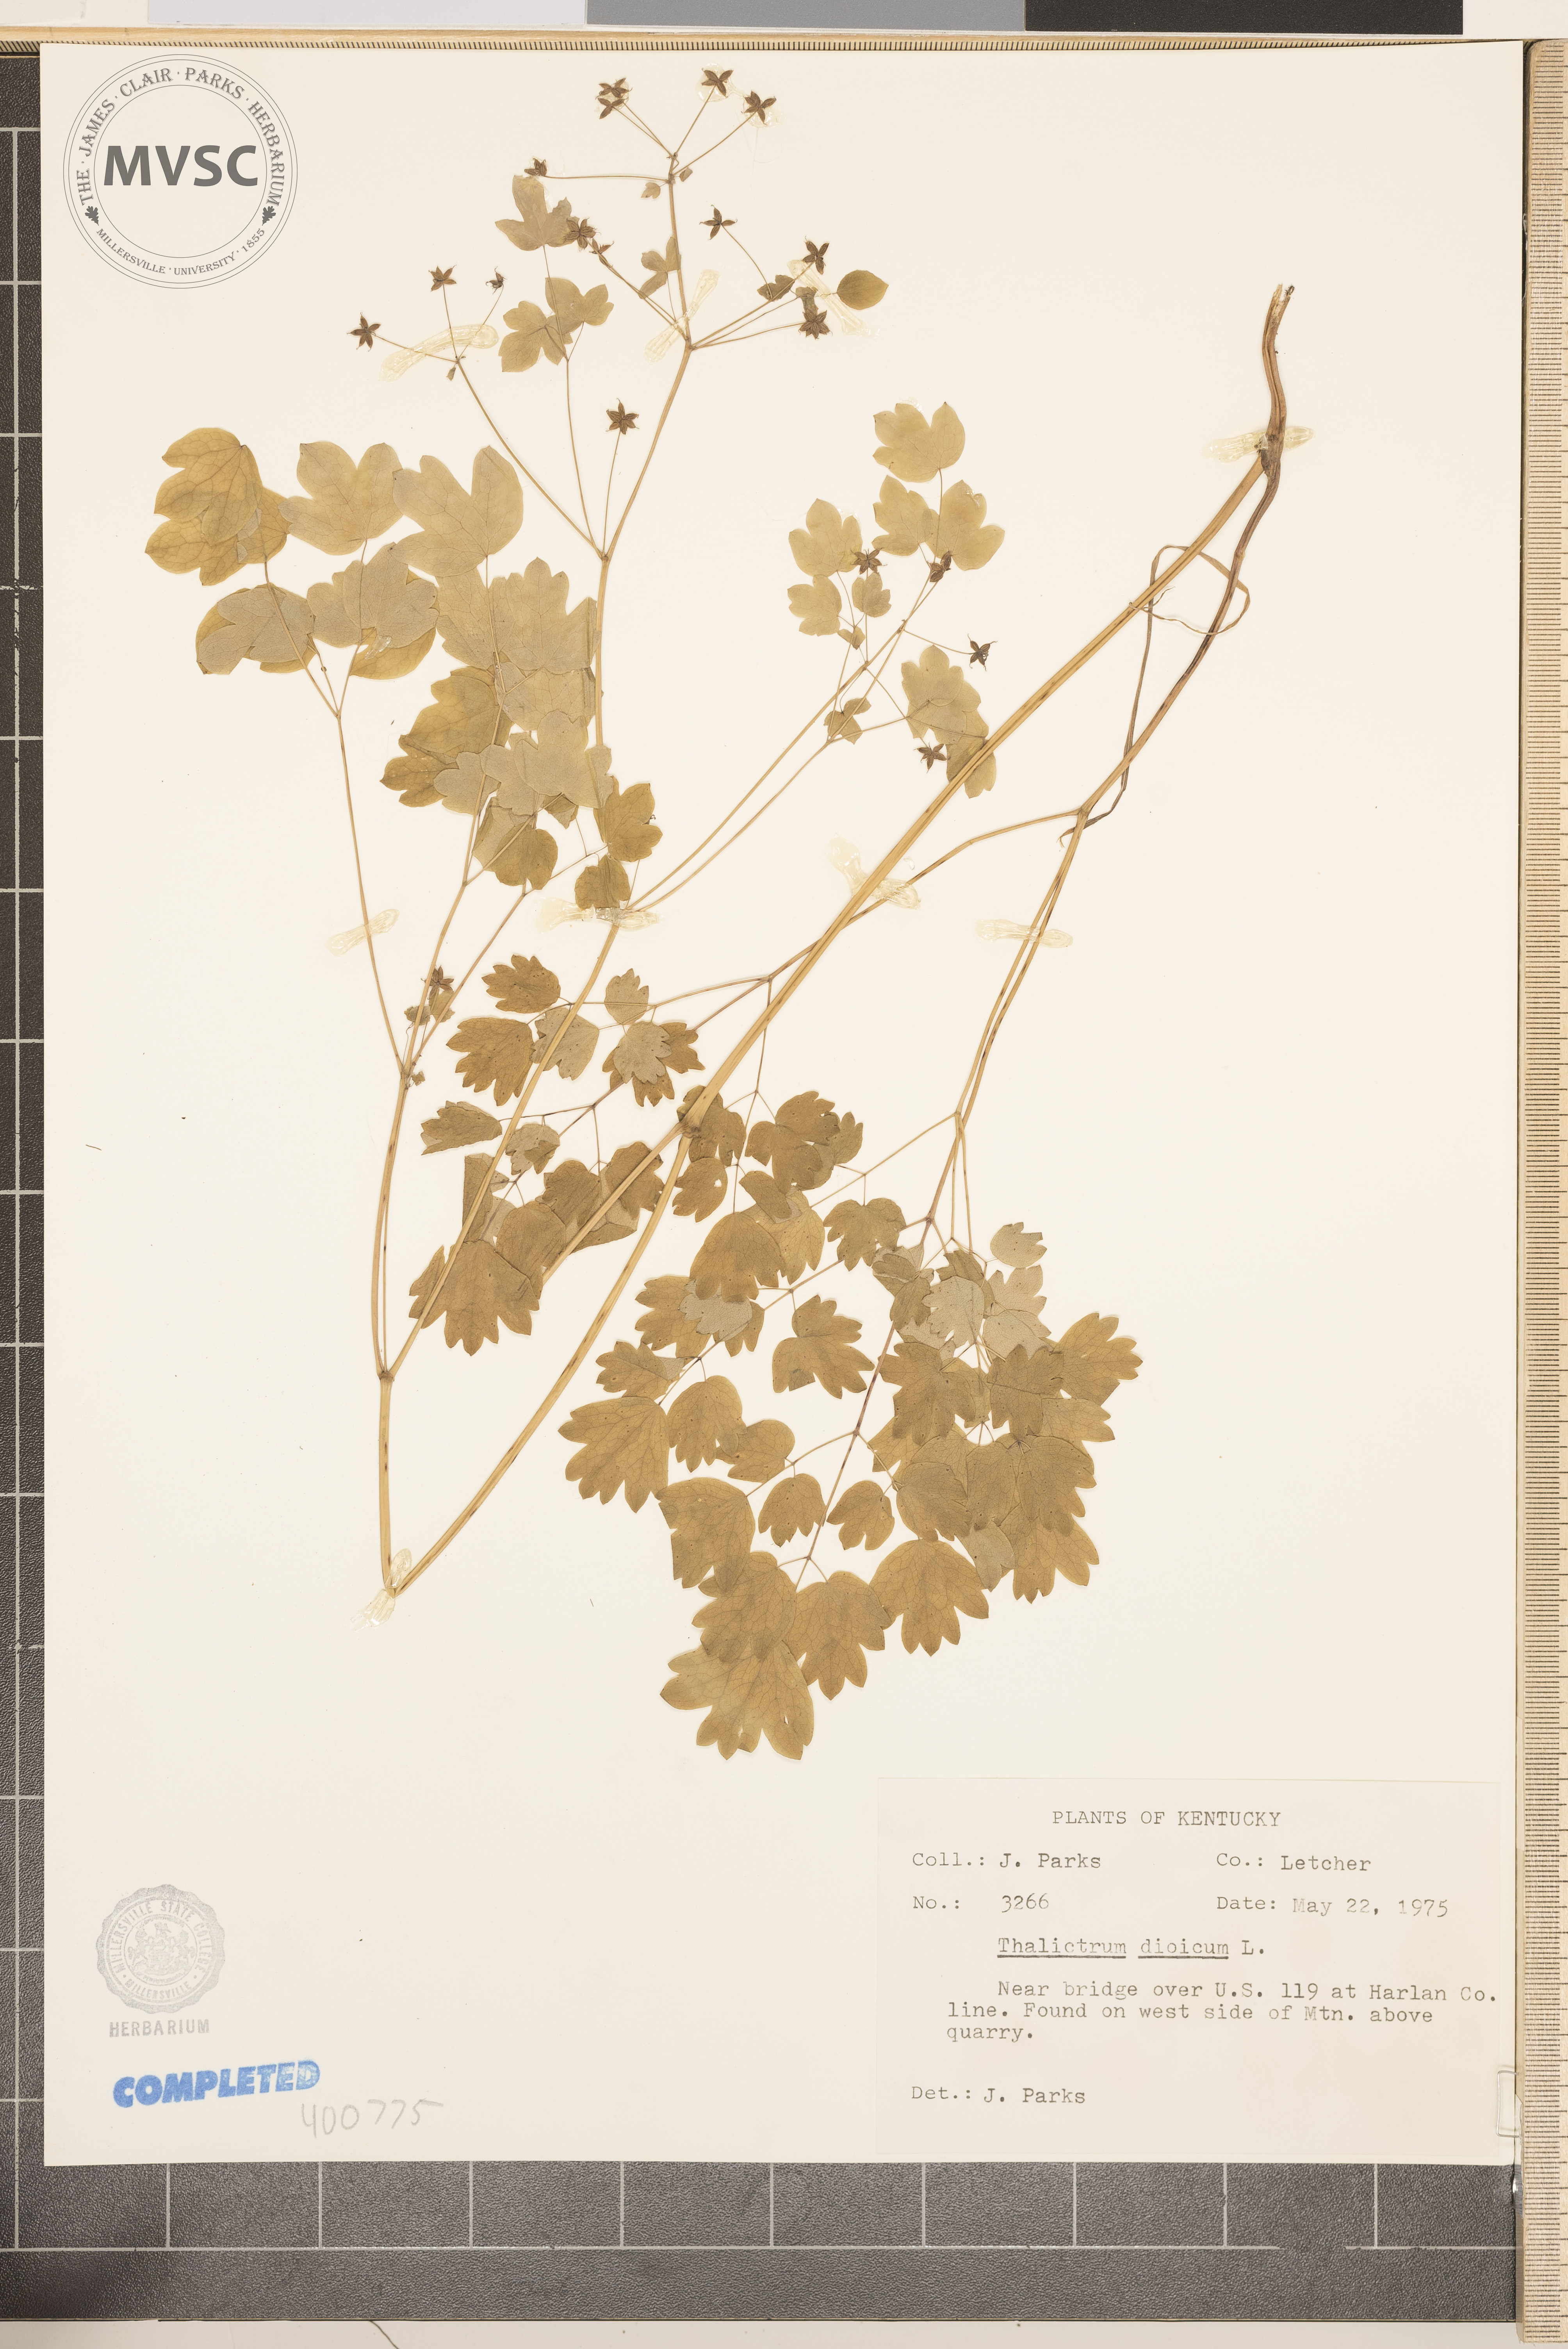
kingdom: Plantae
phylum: Tracheophyta
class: Magnoliopsida
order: Ranunculales
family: Ranunculaceae
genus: Thalictrum
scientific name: Thalictrum dioicum
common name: Early meadow-rue
